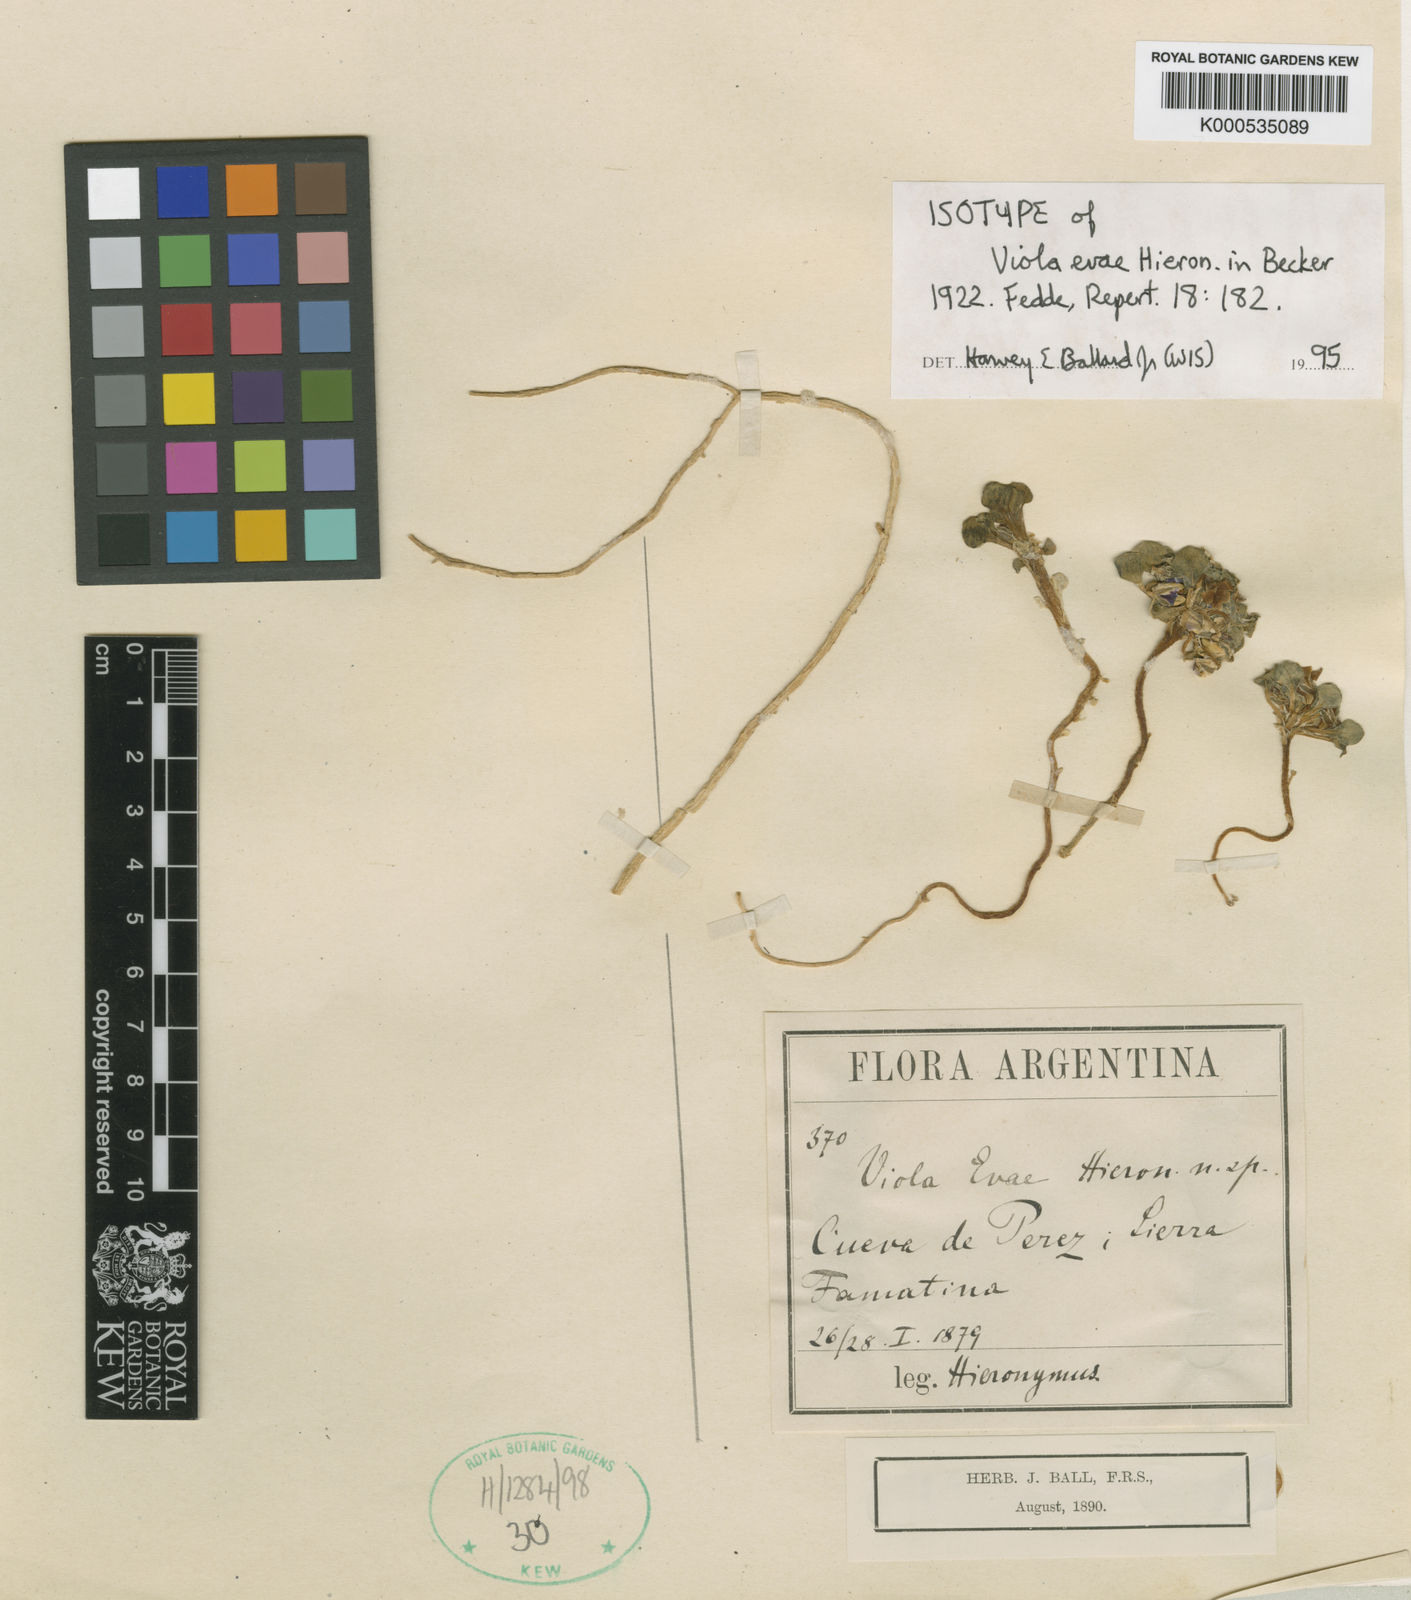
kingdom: Plantae
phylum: Tracheophyta
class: Magnoliopsida
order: Malpighiales
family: Violaceae
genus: Viola
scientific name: Viola evae
